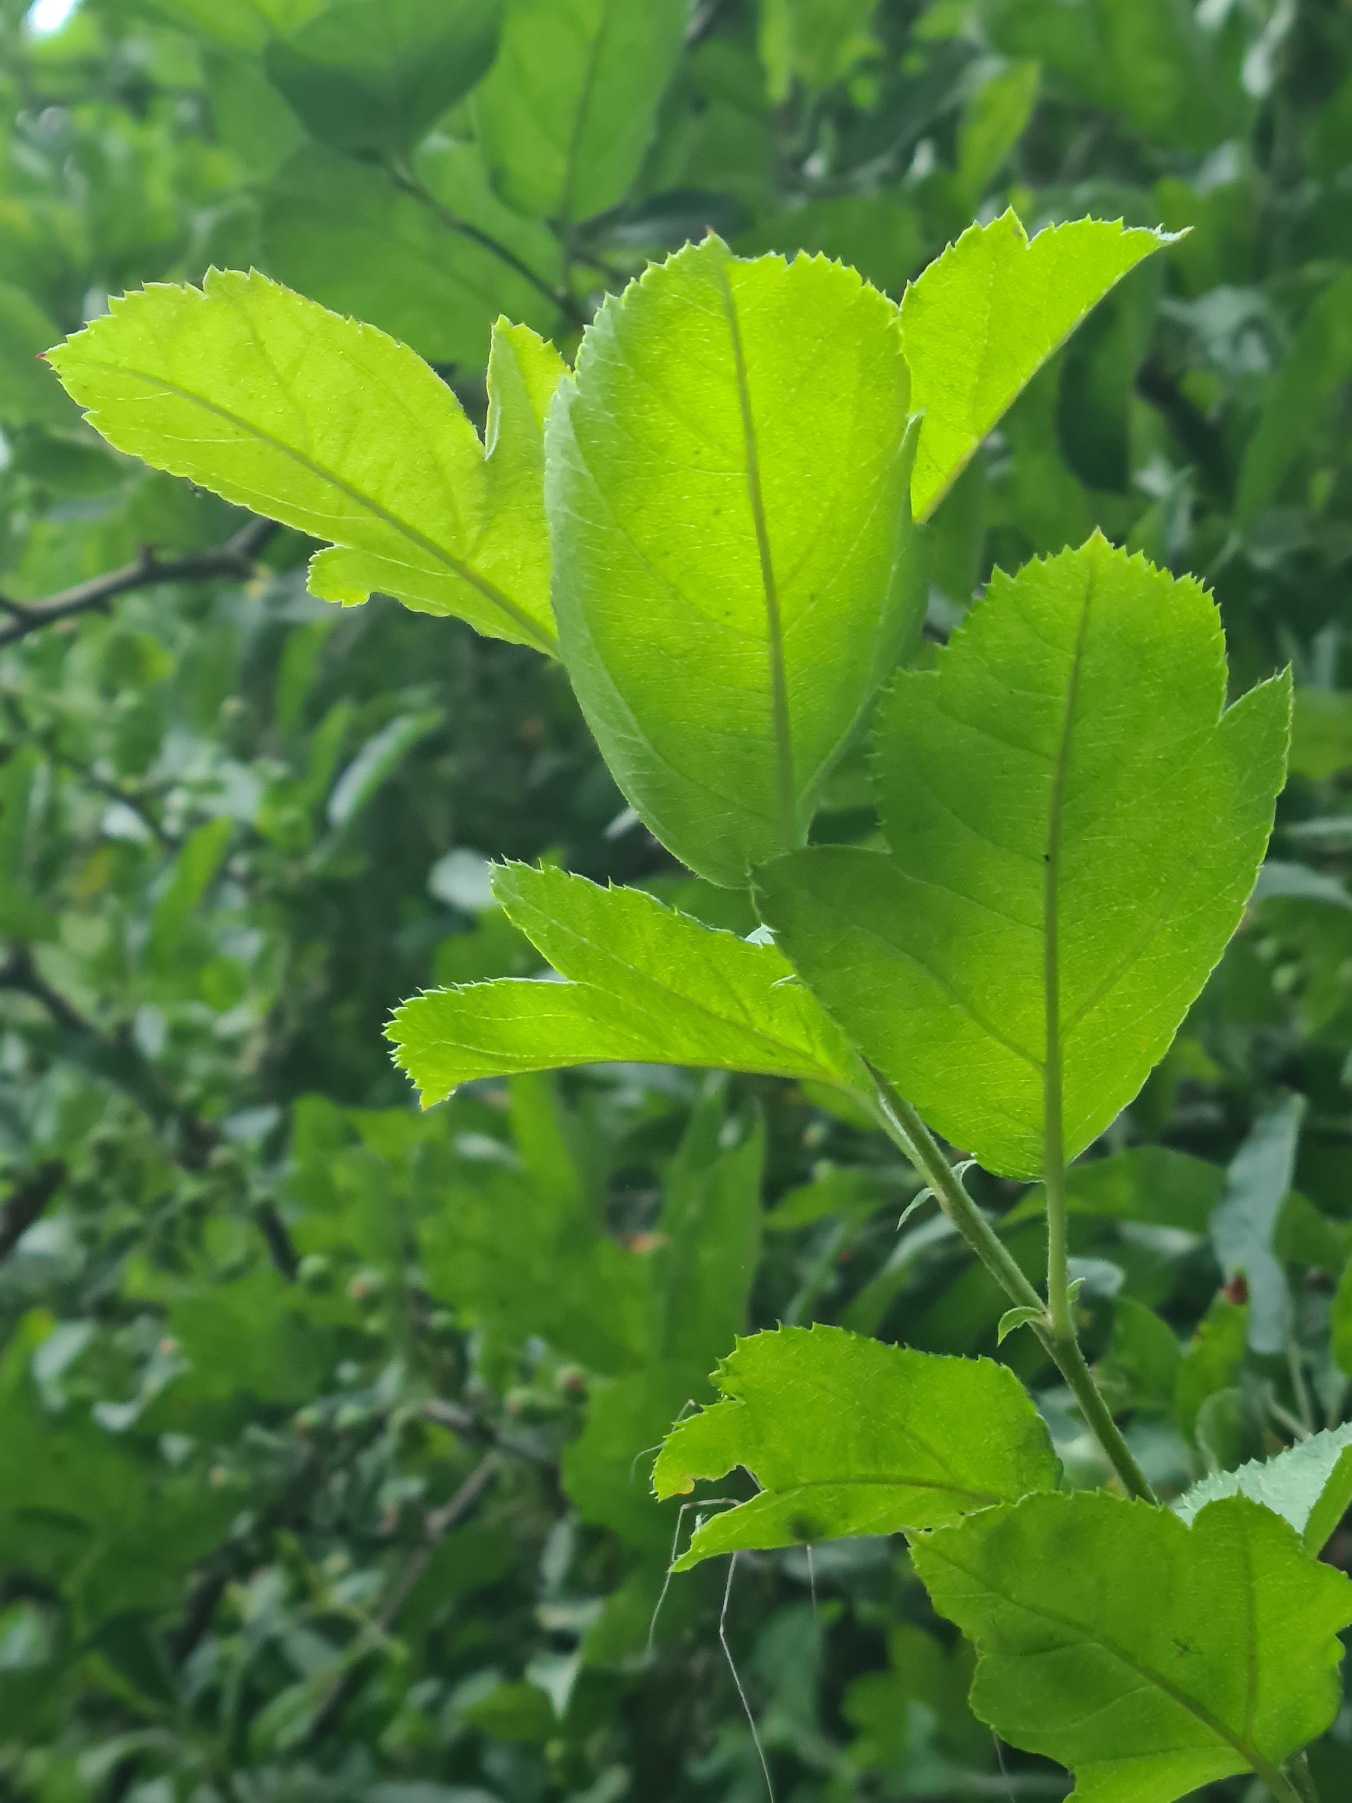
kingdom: Plantae
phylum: Tracheophyta
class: Magnoliopsida
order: Rosales
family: Rosaceae
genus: Malus
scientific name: Malus toringo
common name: Sargents-æble
